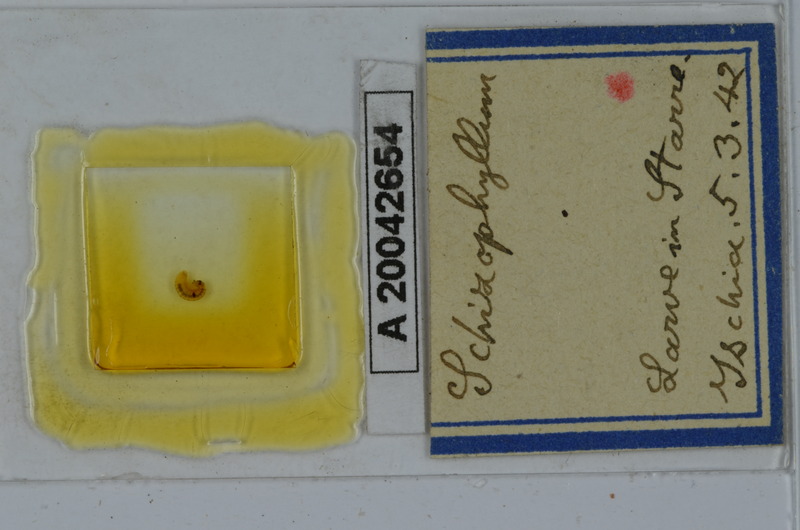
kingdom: Animalia
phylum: Arthropoda
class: Diplopoda
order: Julida
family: Julidae
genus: Schizophyllum
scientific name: Schizophyllum
